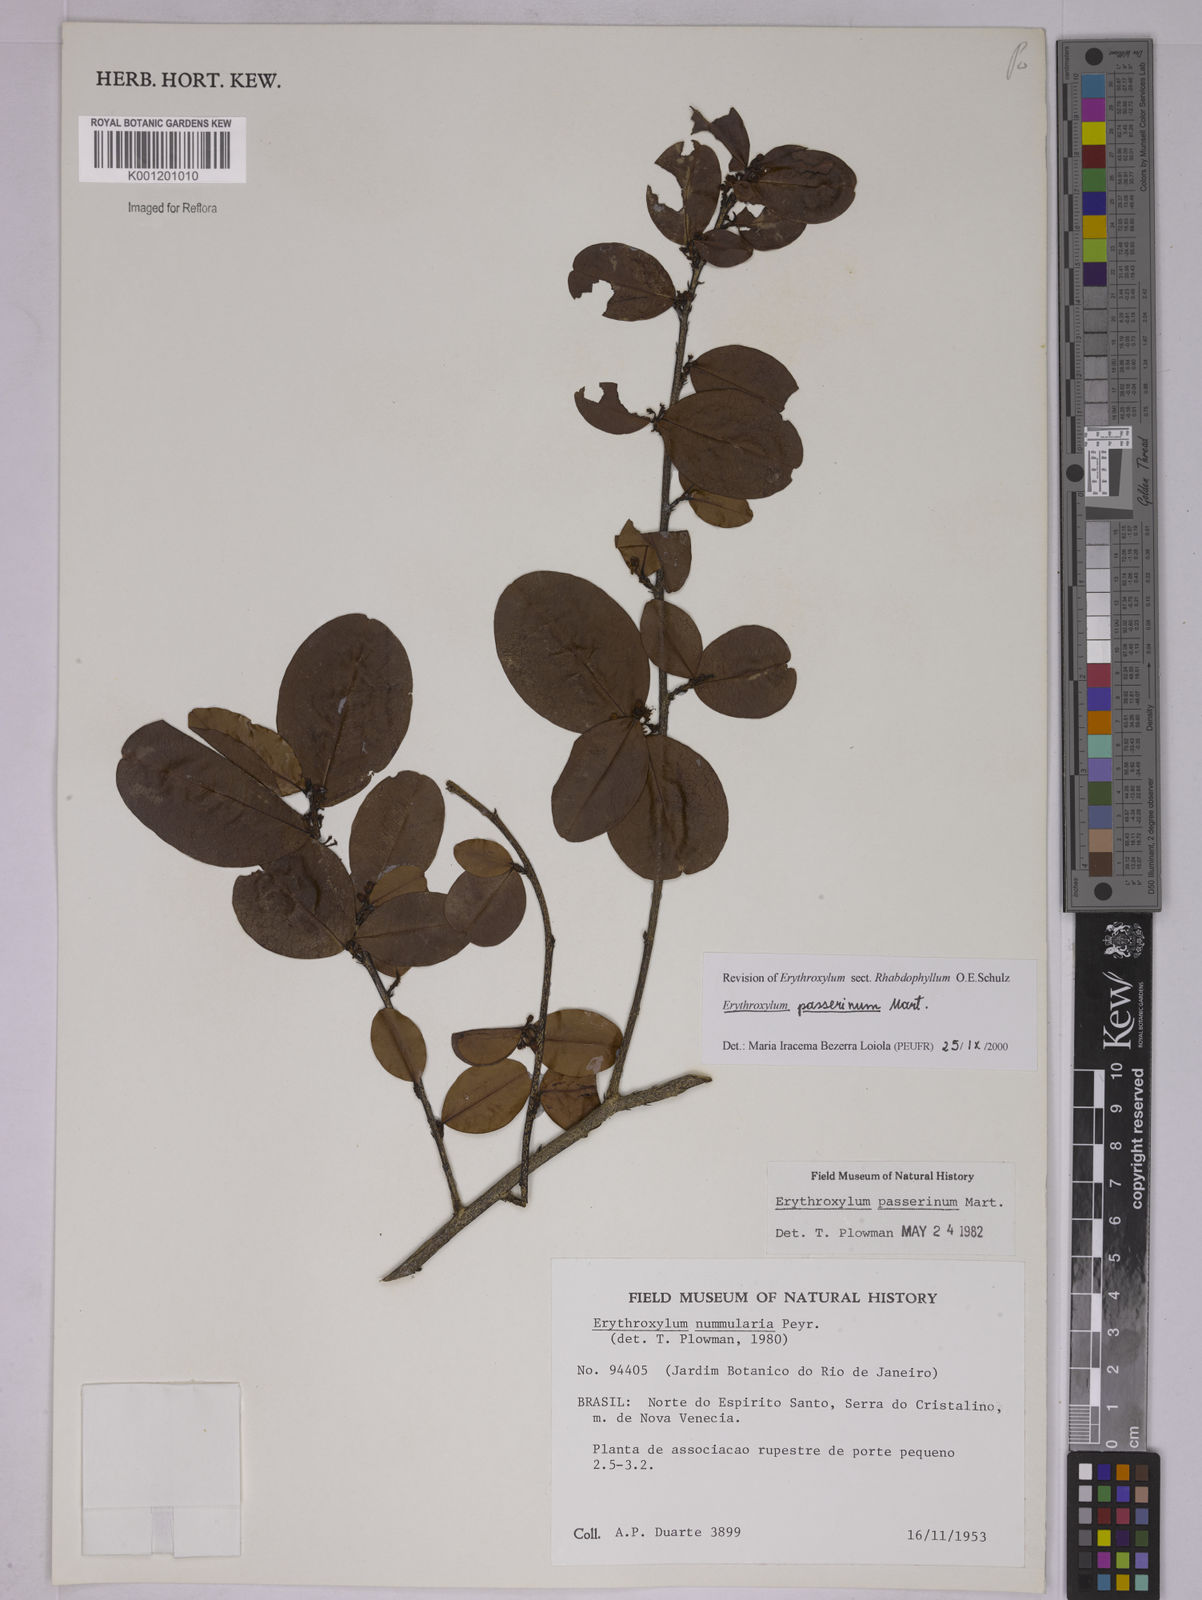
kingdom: Plantae
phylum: Tracheophyta
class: Magnoliopsida
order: Malpighiales
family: Erythroxylaceae
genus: Erythroxylum
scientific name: Erythroxylum passerinum
